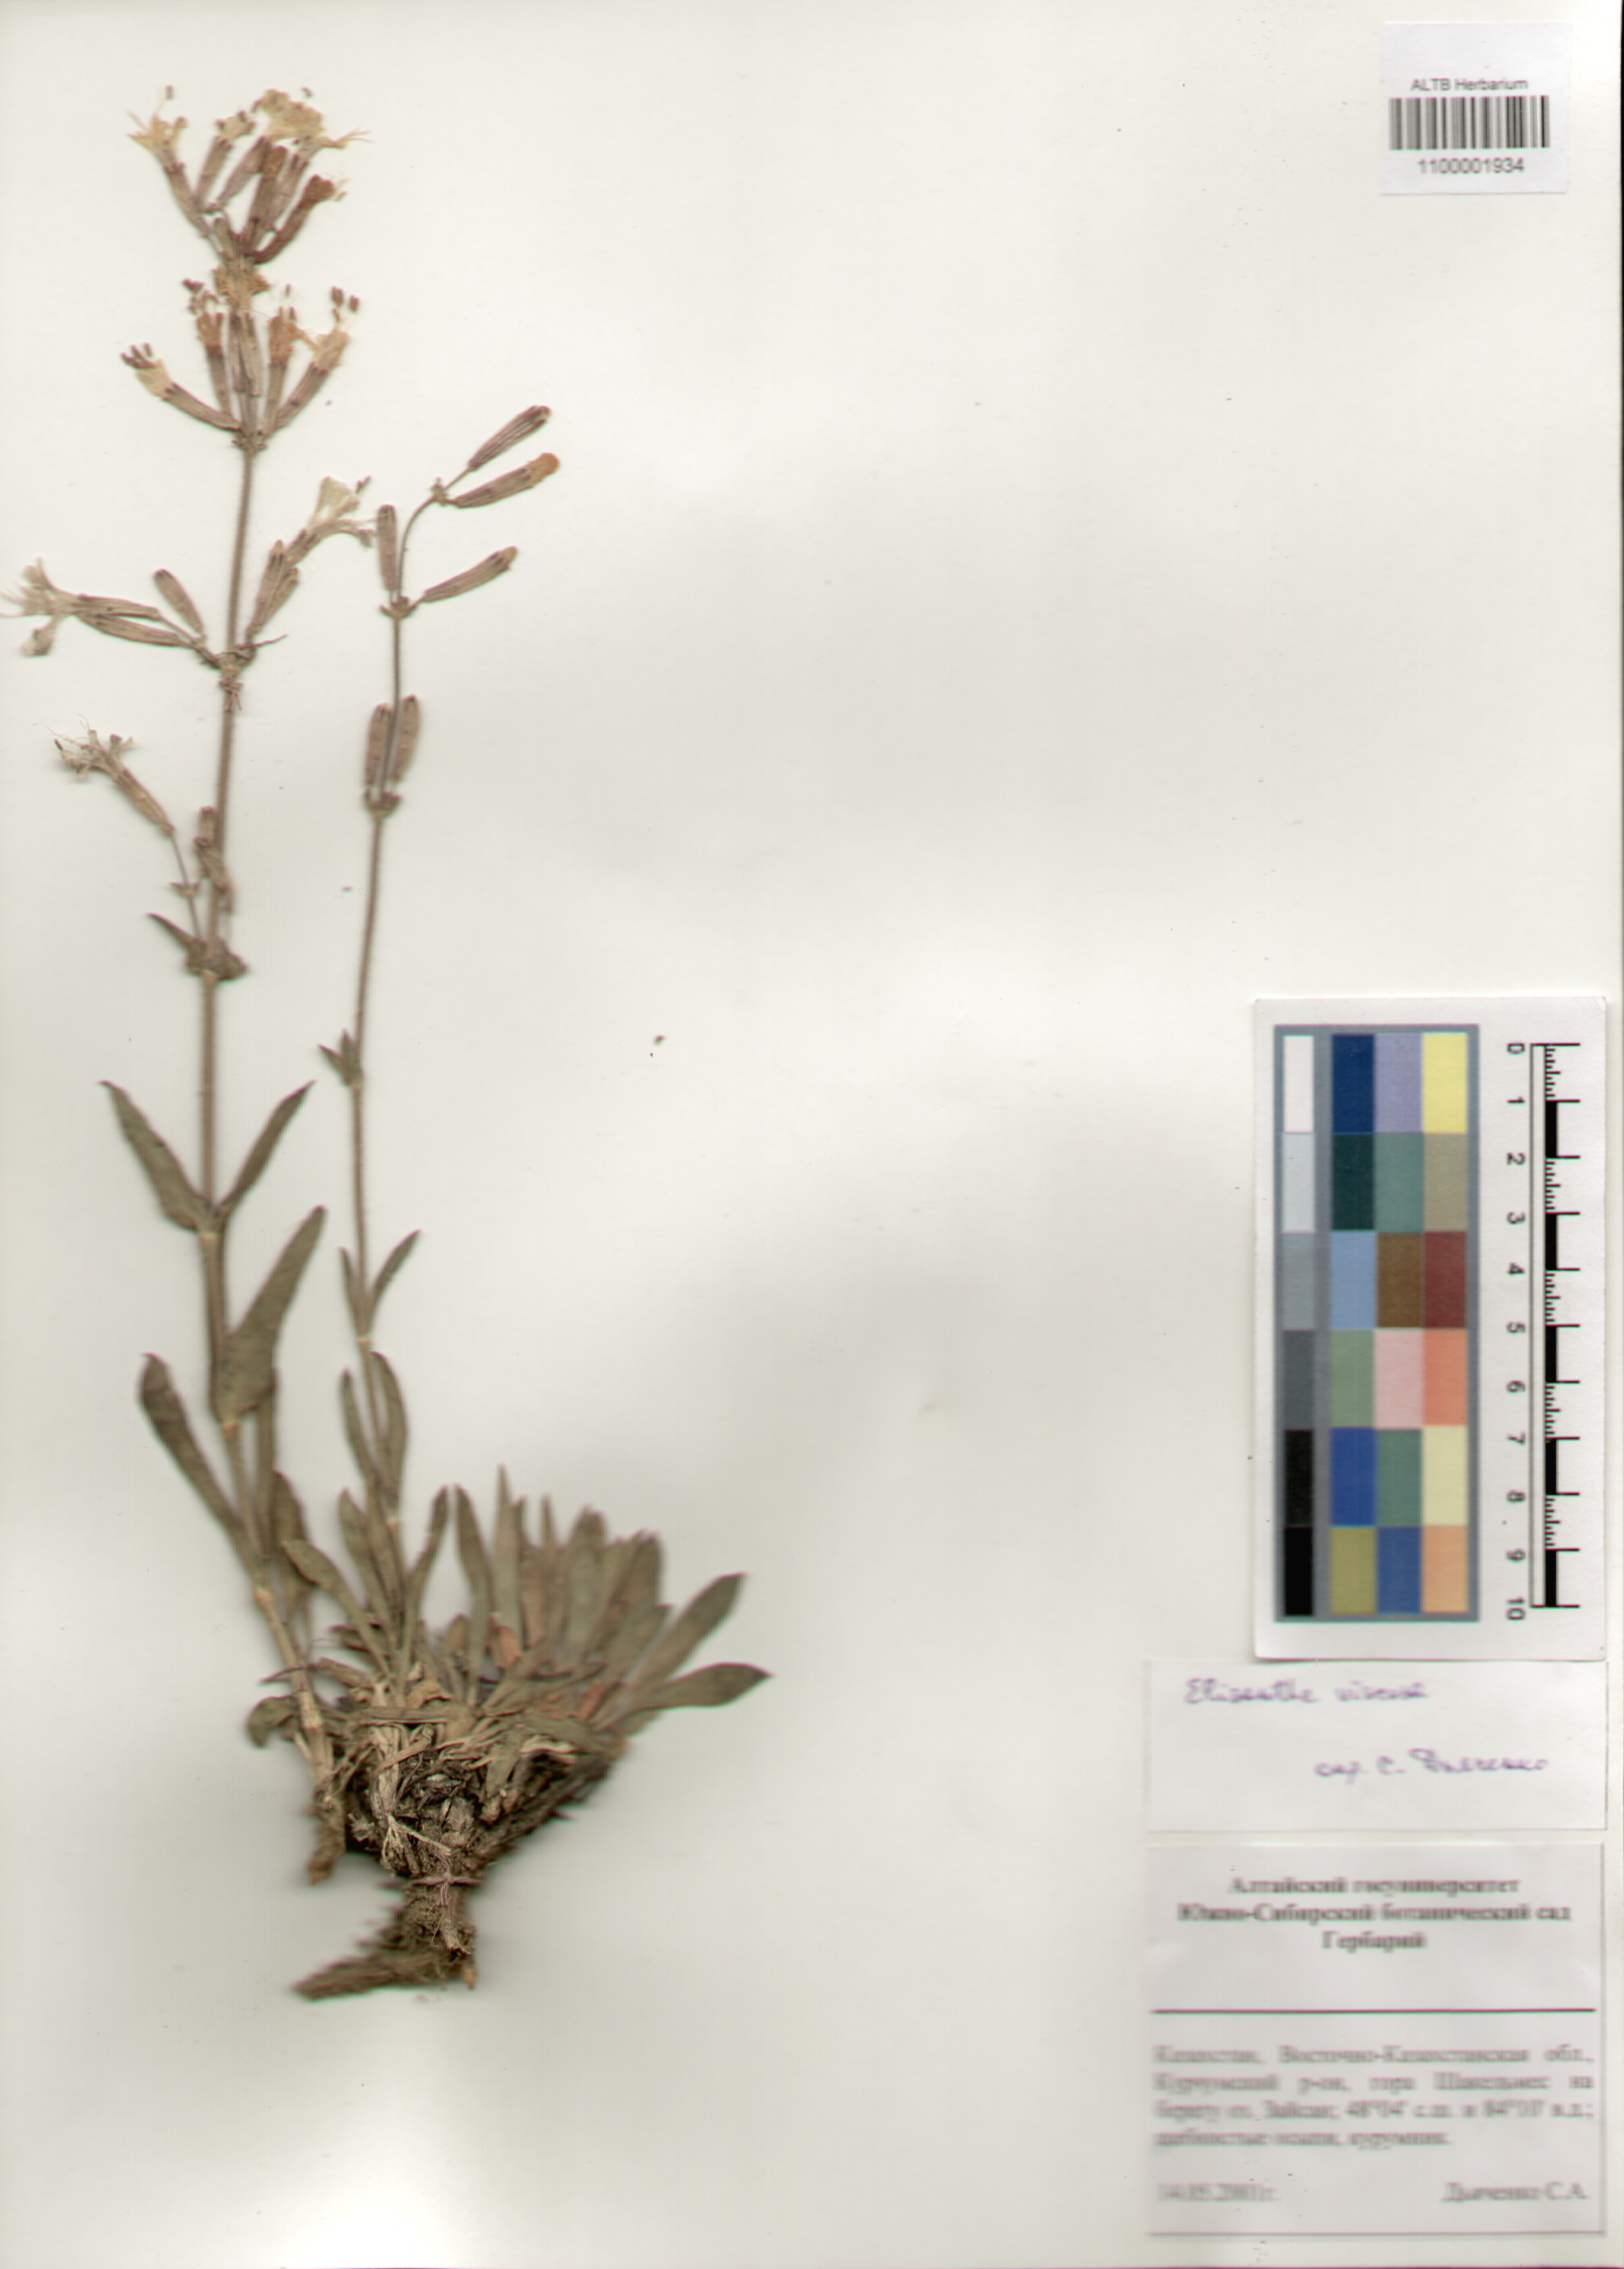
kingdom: Plantae
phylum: Tracheophyta
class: Magnoliopsida
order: Caryophyllales
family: Caryophyllaceae
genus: Silene
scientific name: Silene viscosa
